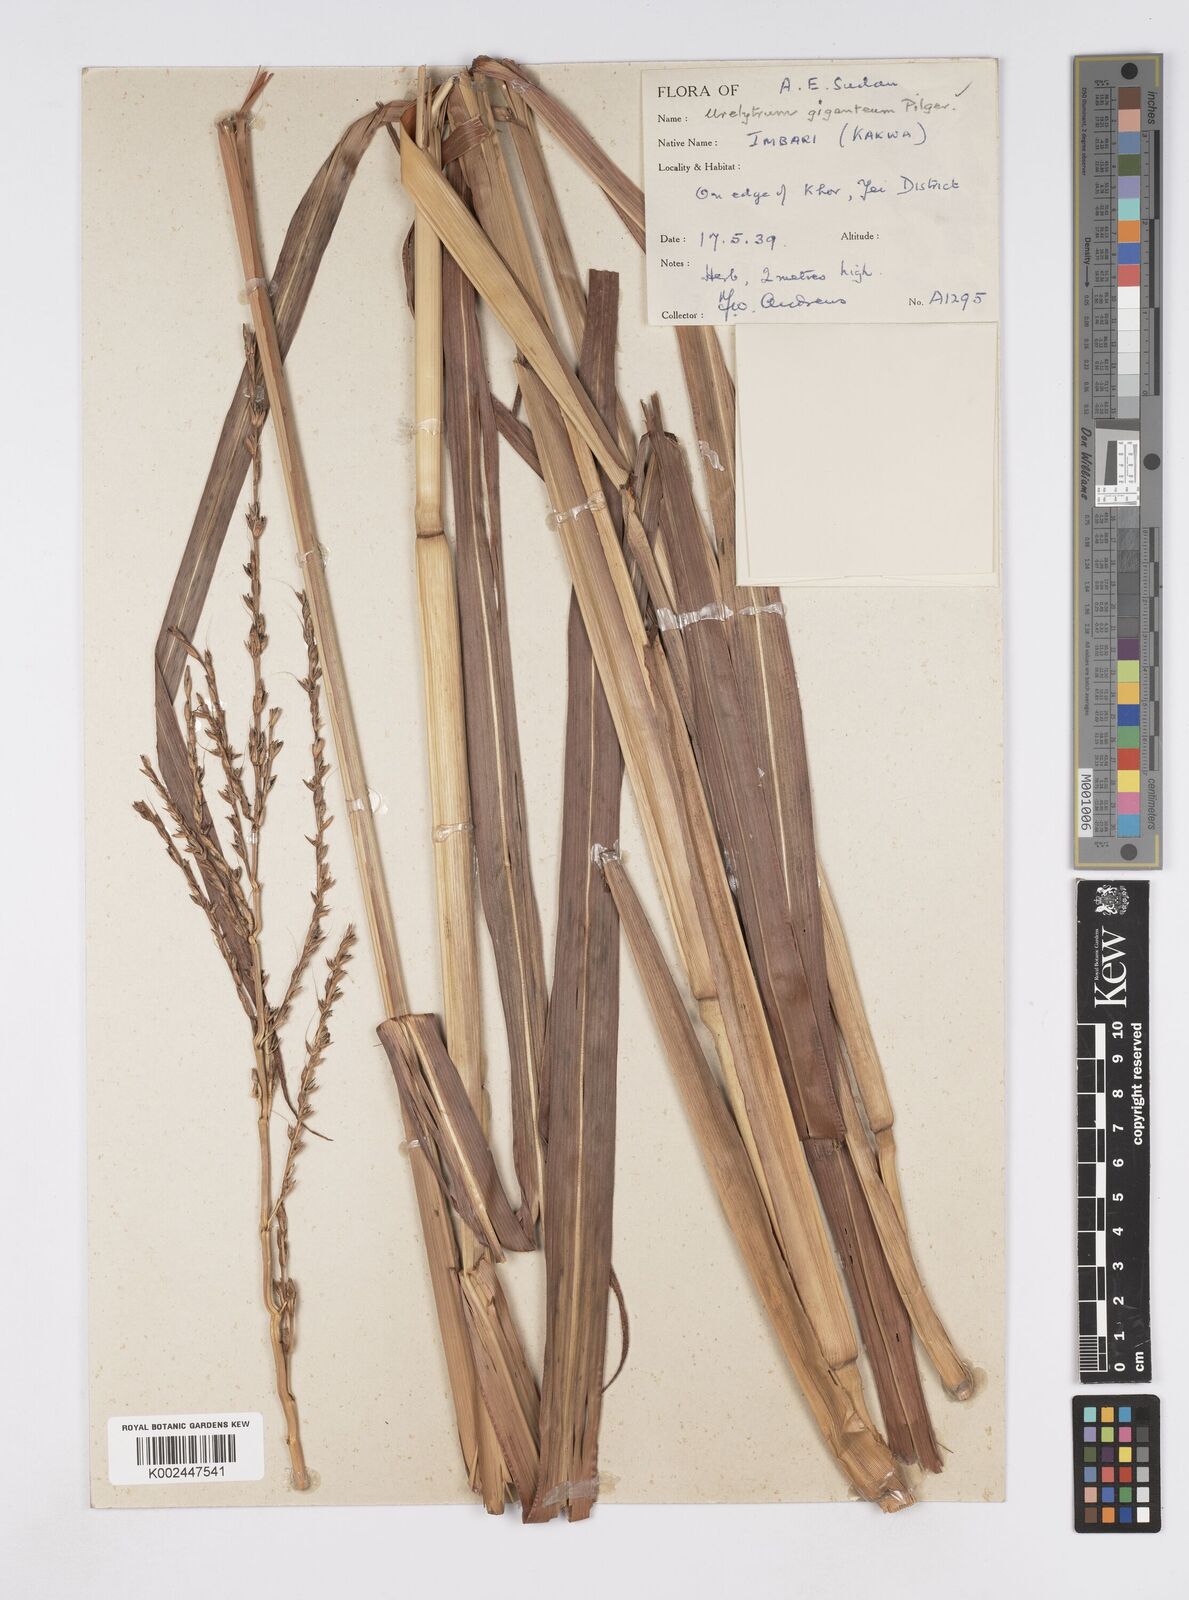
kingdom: Plantae
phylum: Tracheophyta
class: Liliopsida
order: Poales
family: Poaceae
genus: Urelytrum
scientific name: Urelytrum giganteum
